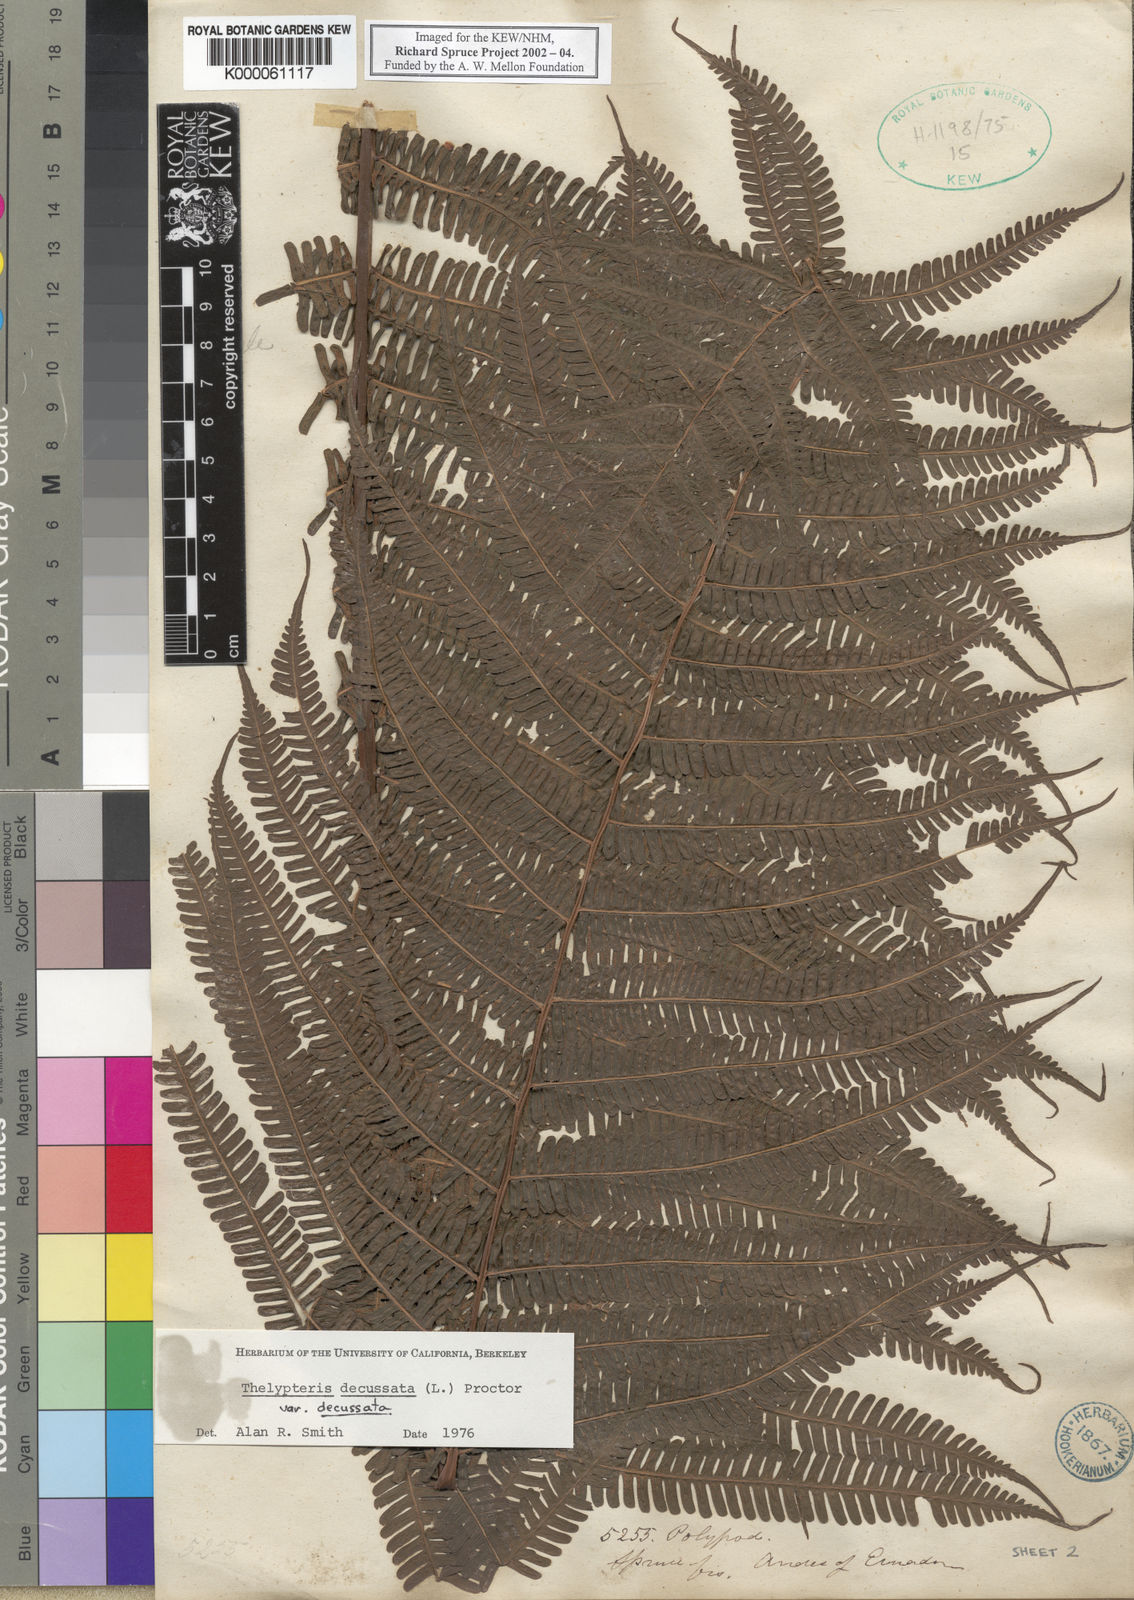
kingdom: Plantae
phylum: Tracheophyta
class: Polypodiopsida
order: Polypodiales
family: Thelypteridaceae
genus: Glaphyropteris
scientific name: Glaphyropteris
